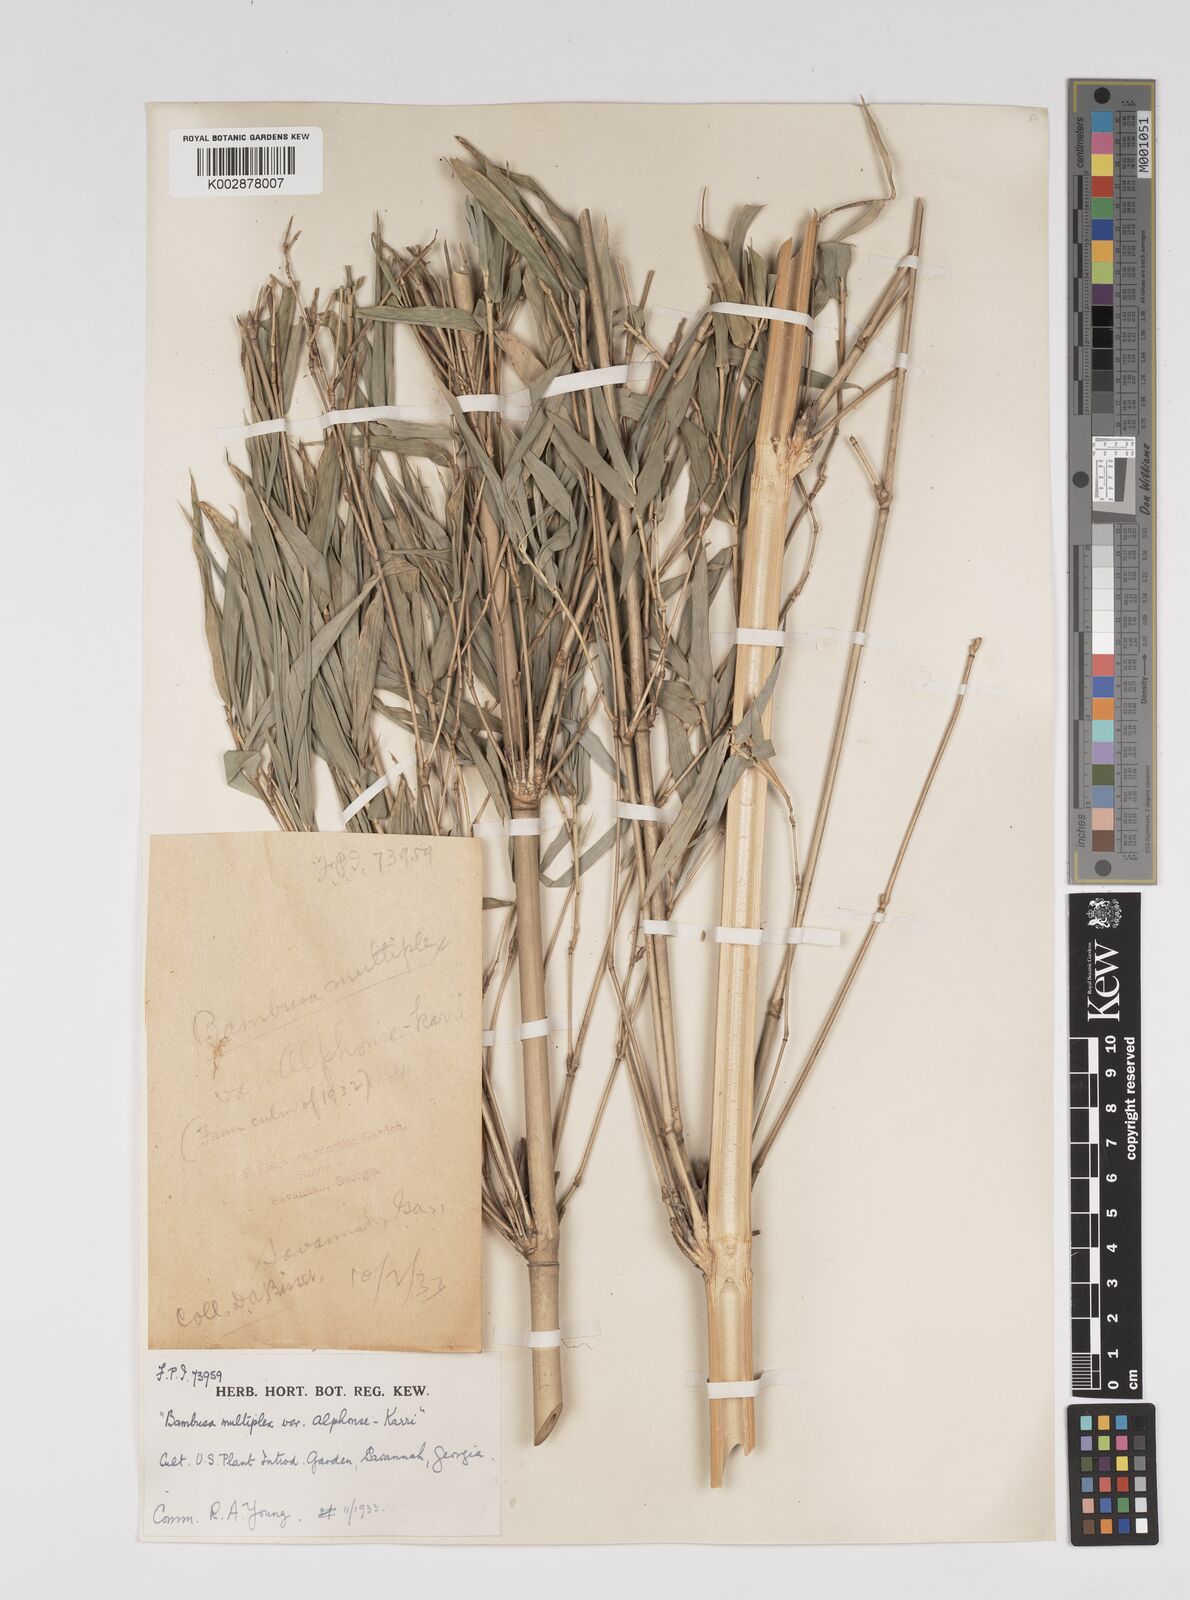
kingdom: Plantae
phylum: Tracheophyta
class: Liliopsida
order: Poales
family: Poaceae
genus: Bambusa
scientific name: Bambusa multiplex
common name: Hedge bamboo
